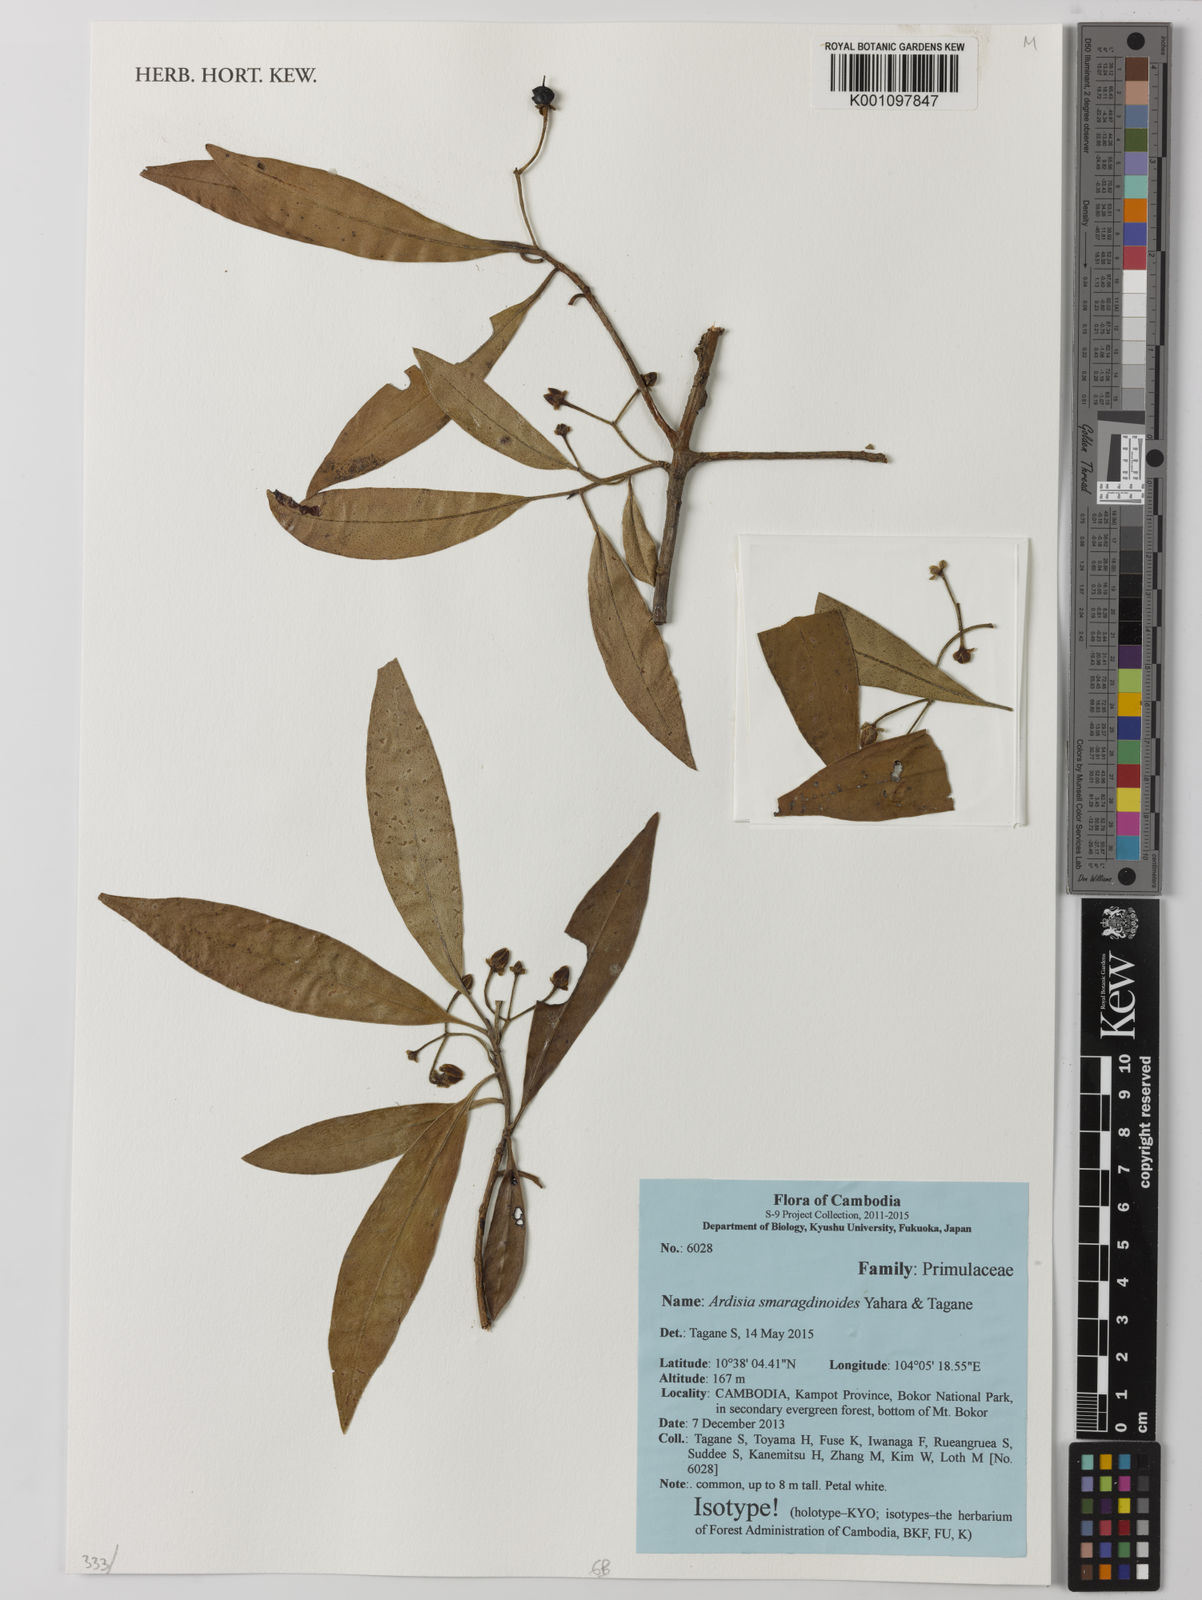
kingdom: Plantae
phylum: Tracheophyta
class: Magnoliopsida
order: Ericales
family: Primulaceae
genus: Ardisia
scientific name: Ardisia smaragdinoides
